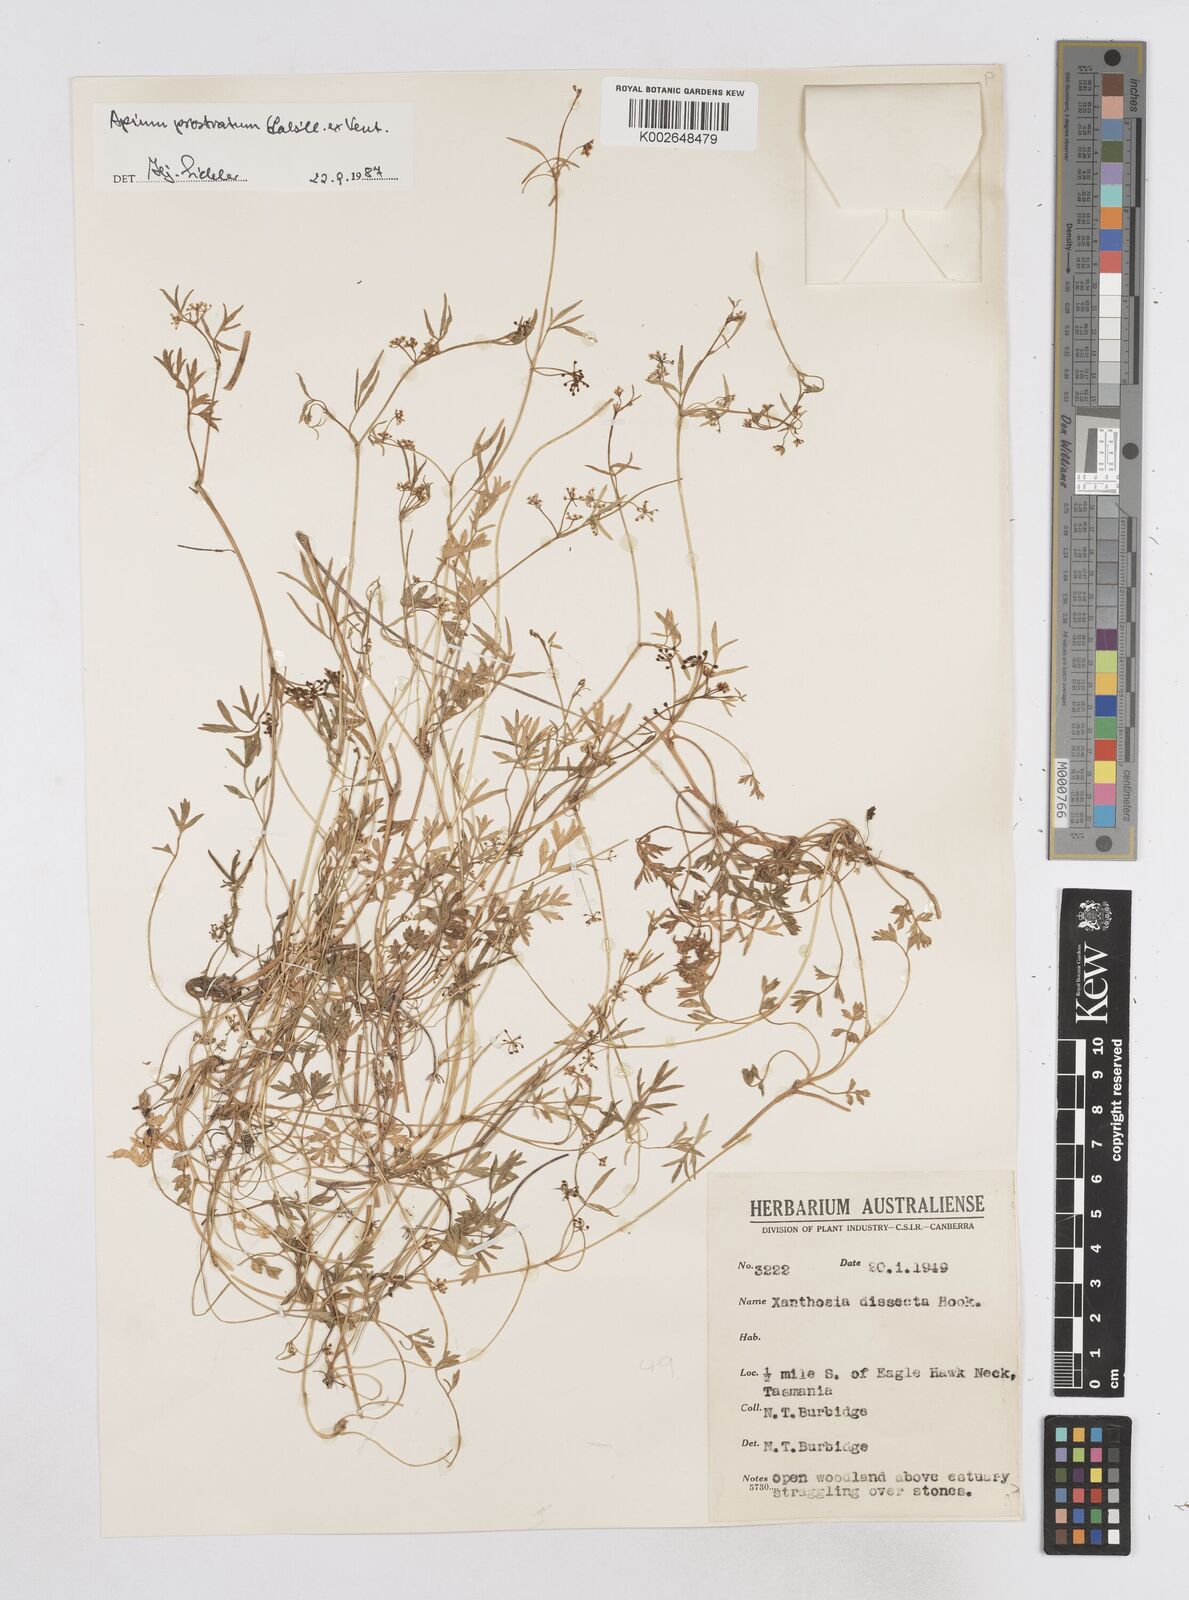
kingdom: Plantae
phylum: Tracheophyta
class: Magnoliopsida
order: Apiales
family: Apiaceae
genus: Apium
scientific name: Apium prostratum
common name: Prostrate marshwort
